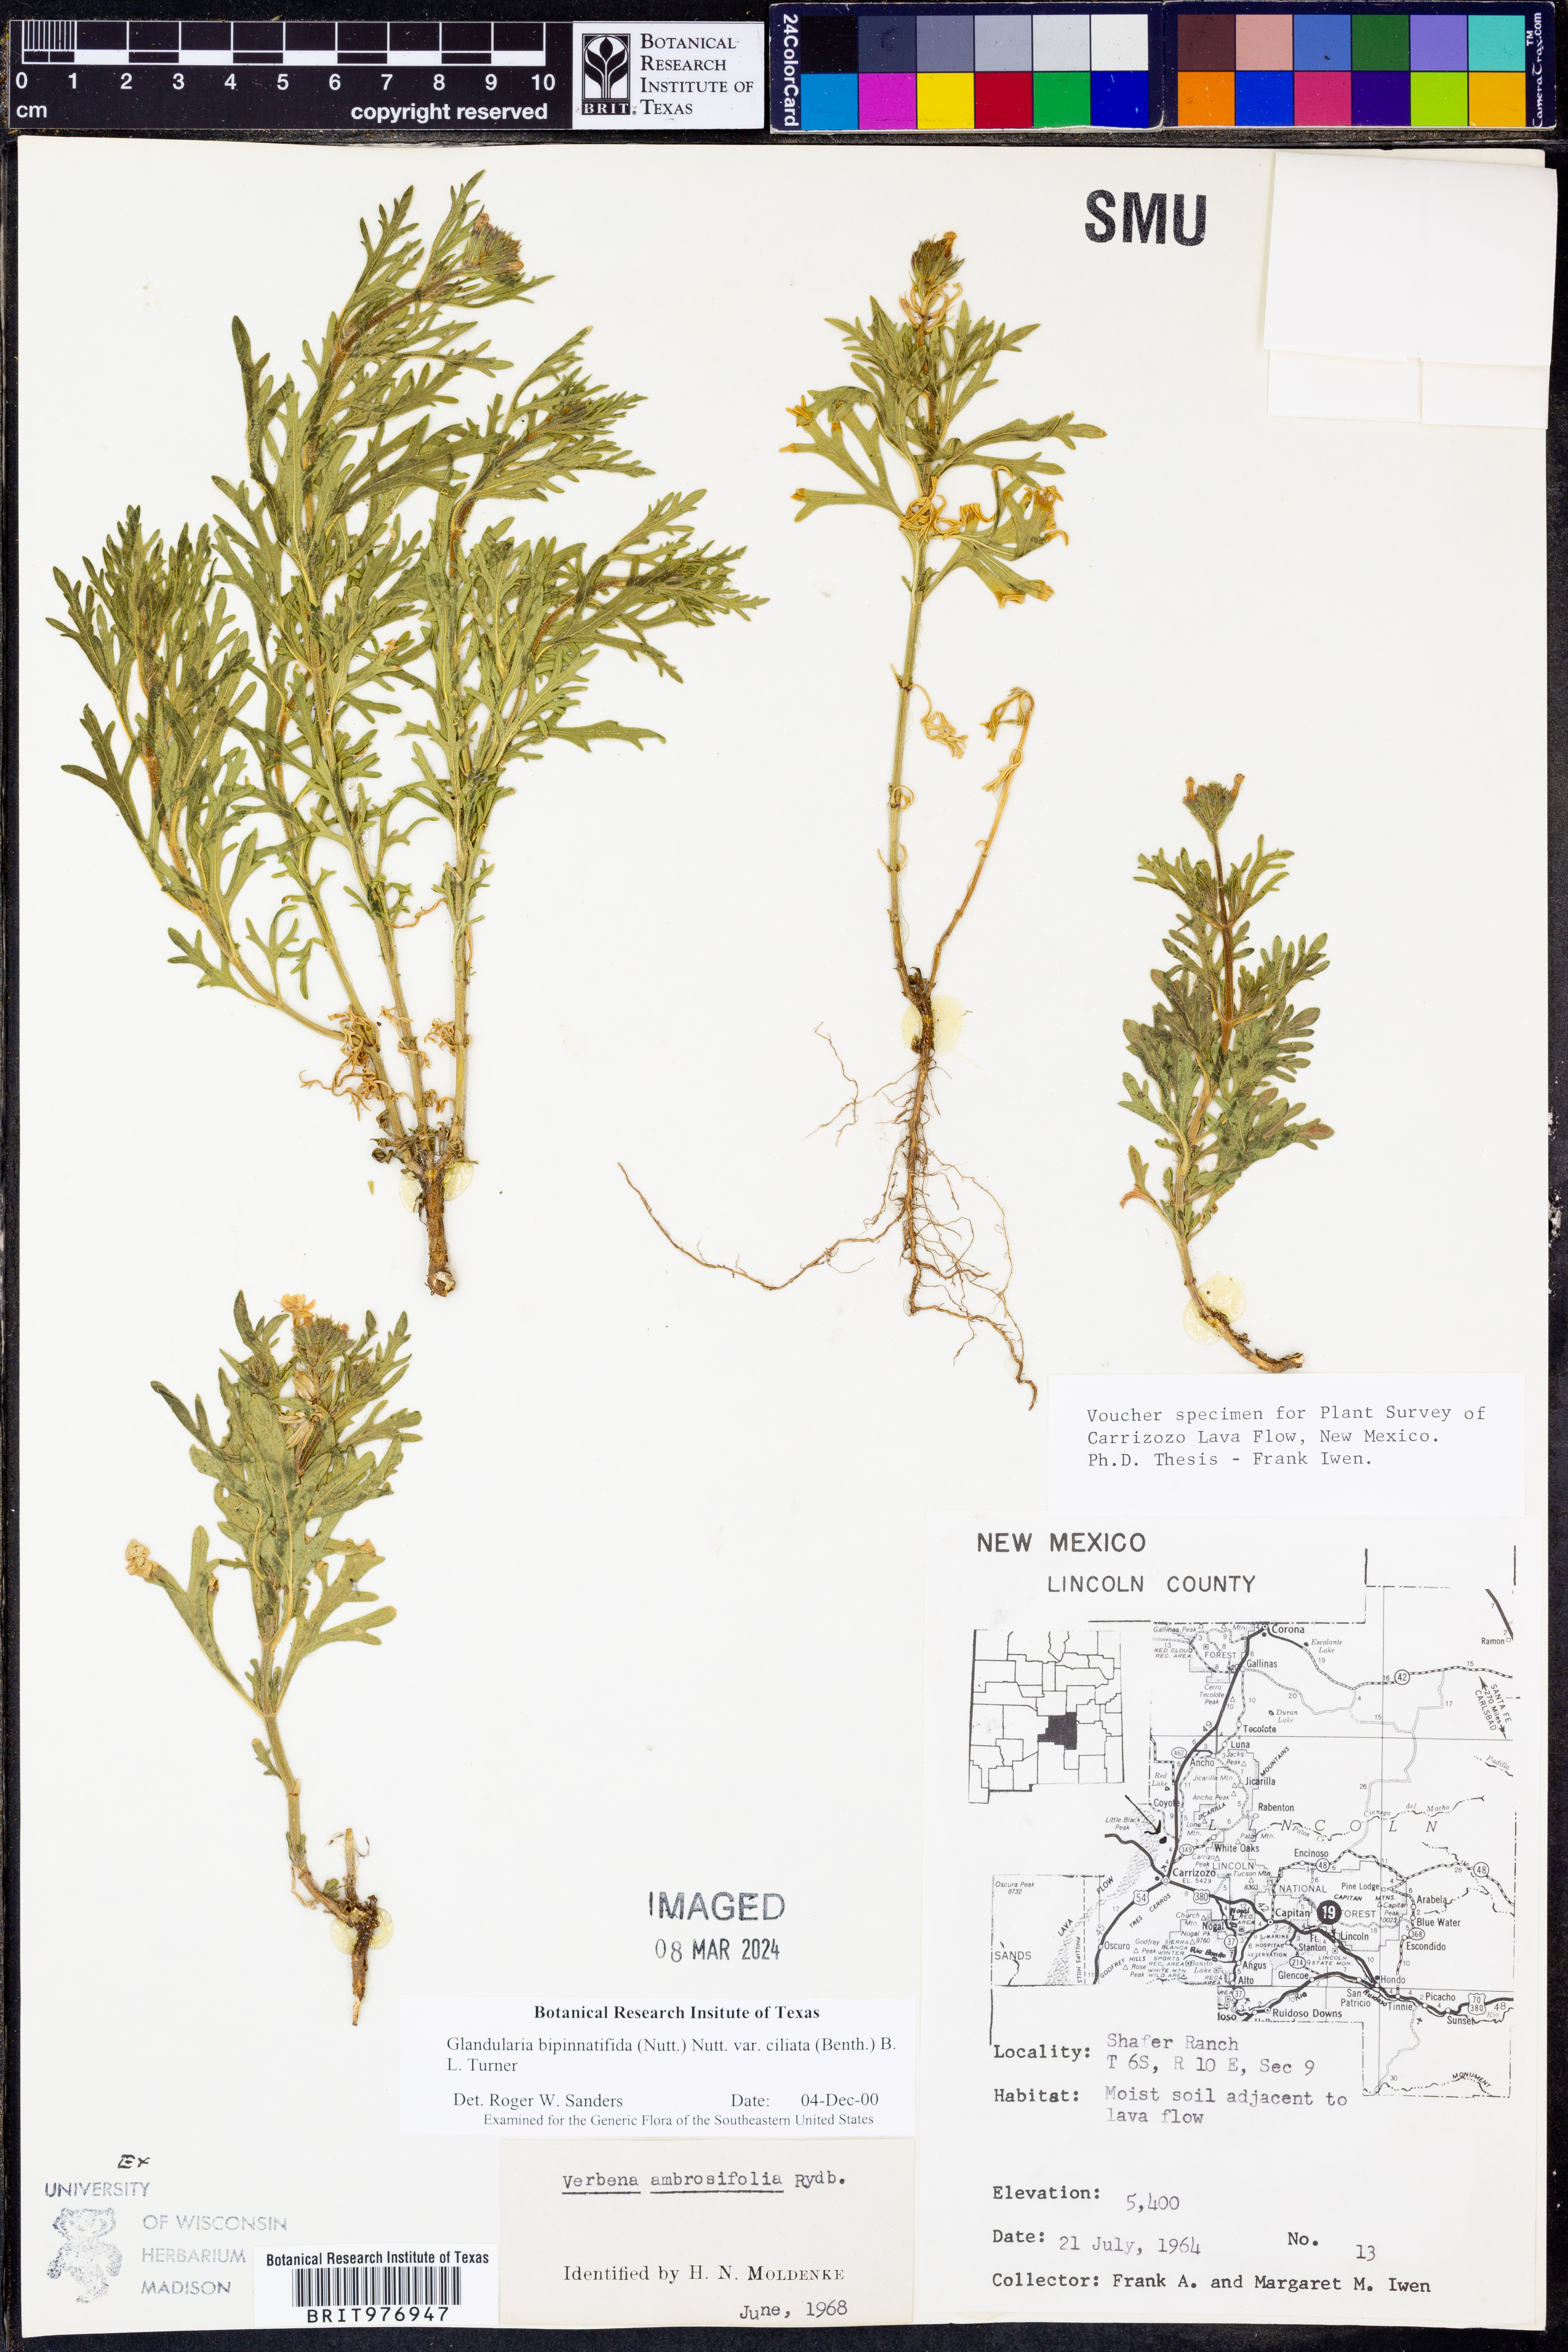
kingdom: Plantae
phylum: Tracheophyta
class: Magnoliopsida
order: Lamiales
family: Verbenaceae
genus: Verbena
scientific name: Verbena bipinnatifida
